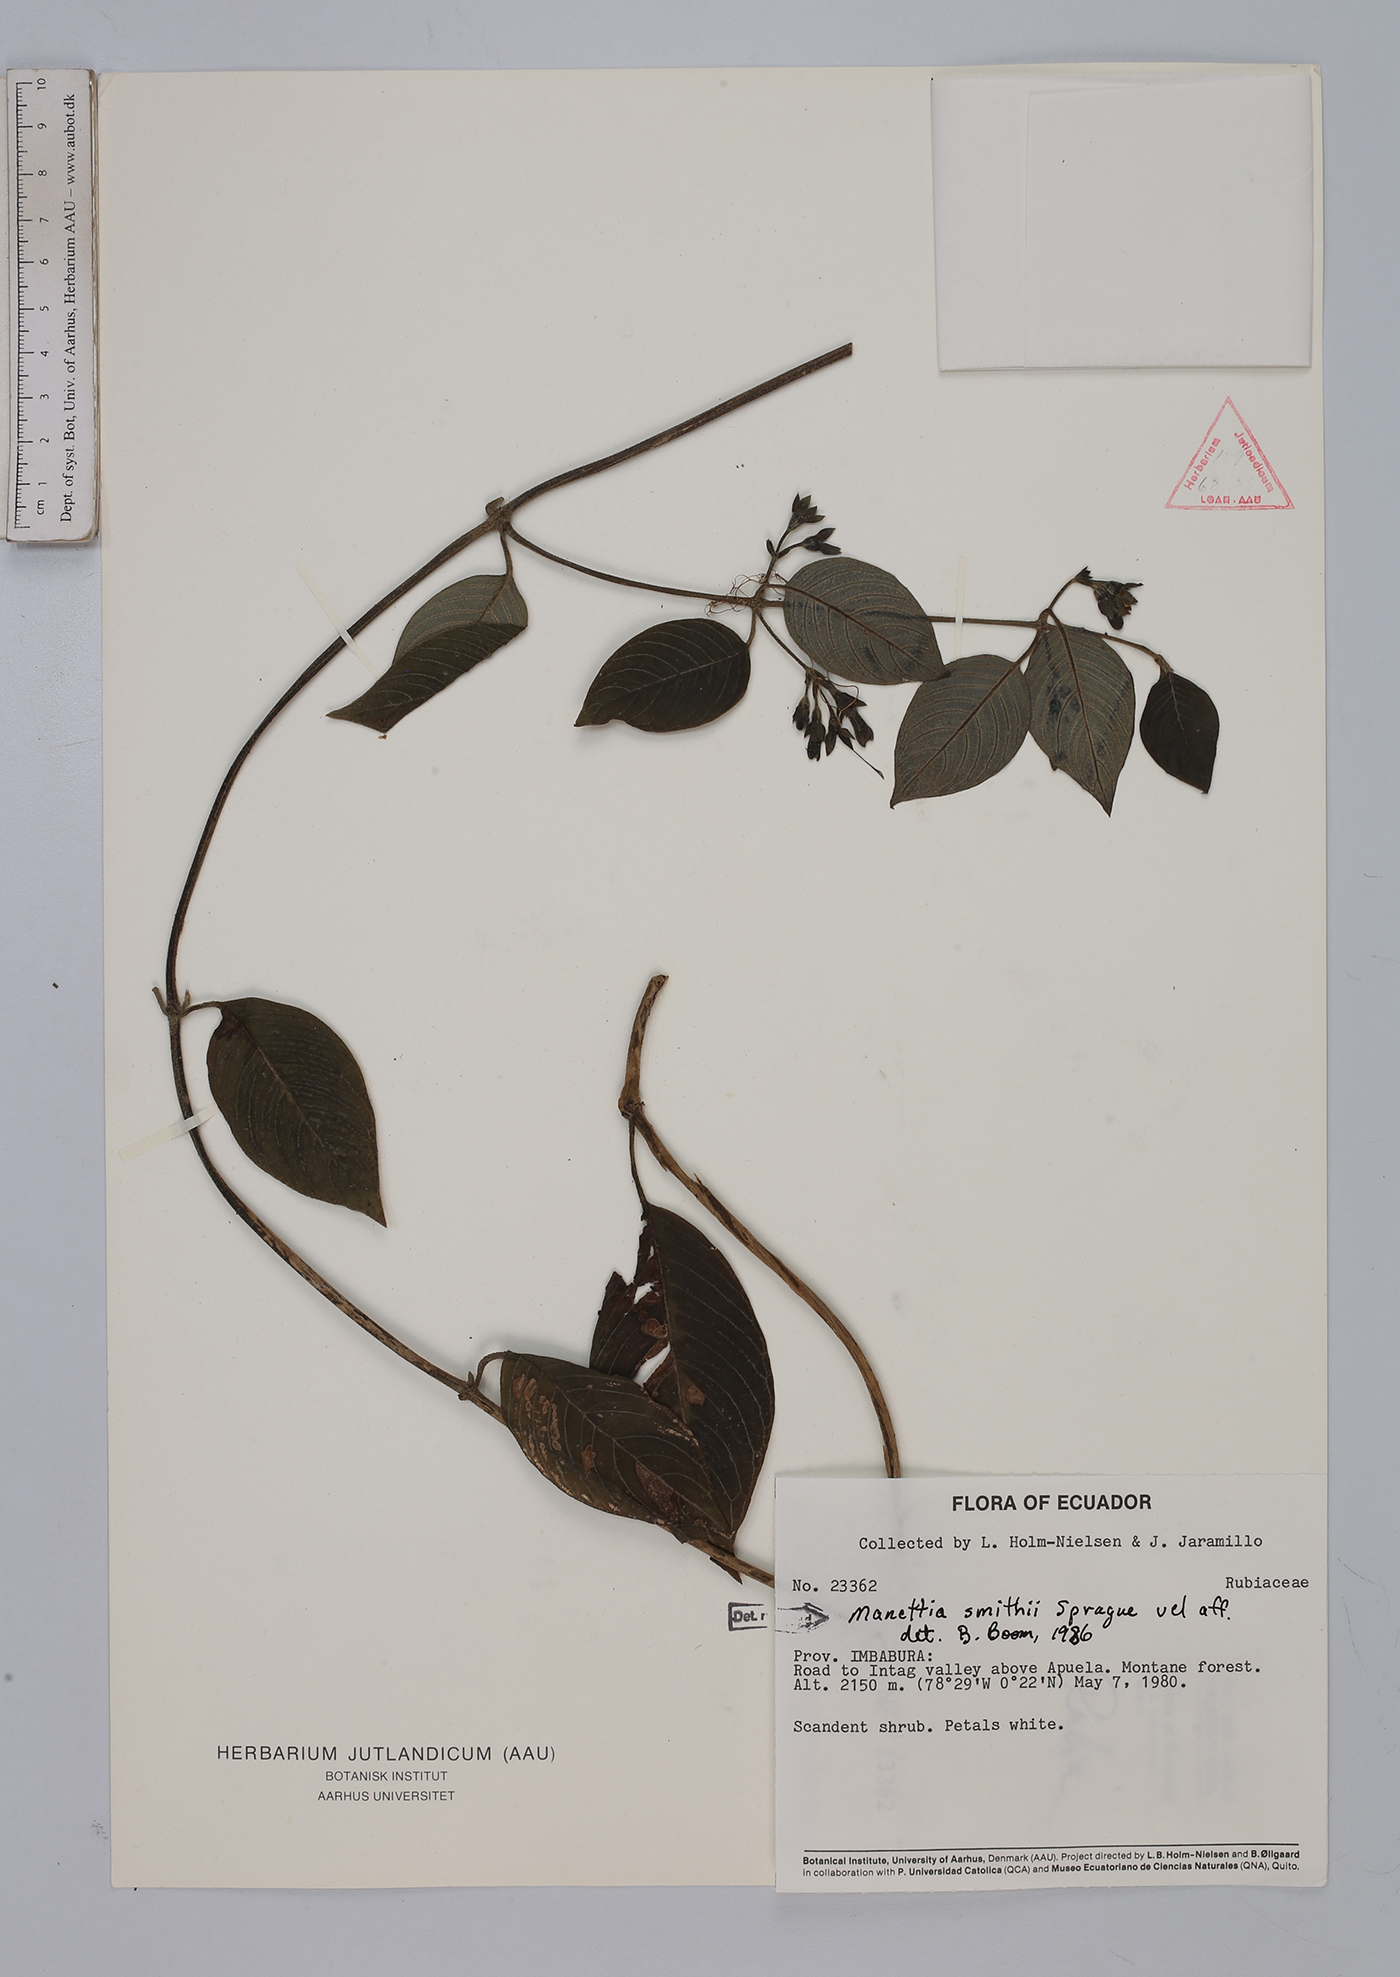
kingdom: Plantae
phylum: Tracheophyta
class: Magnoliopsida
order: Gentianales
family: Rubiaceae
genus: Manettia
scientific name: Manettia smithii
